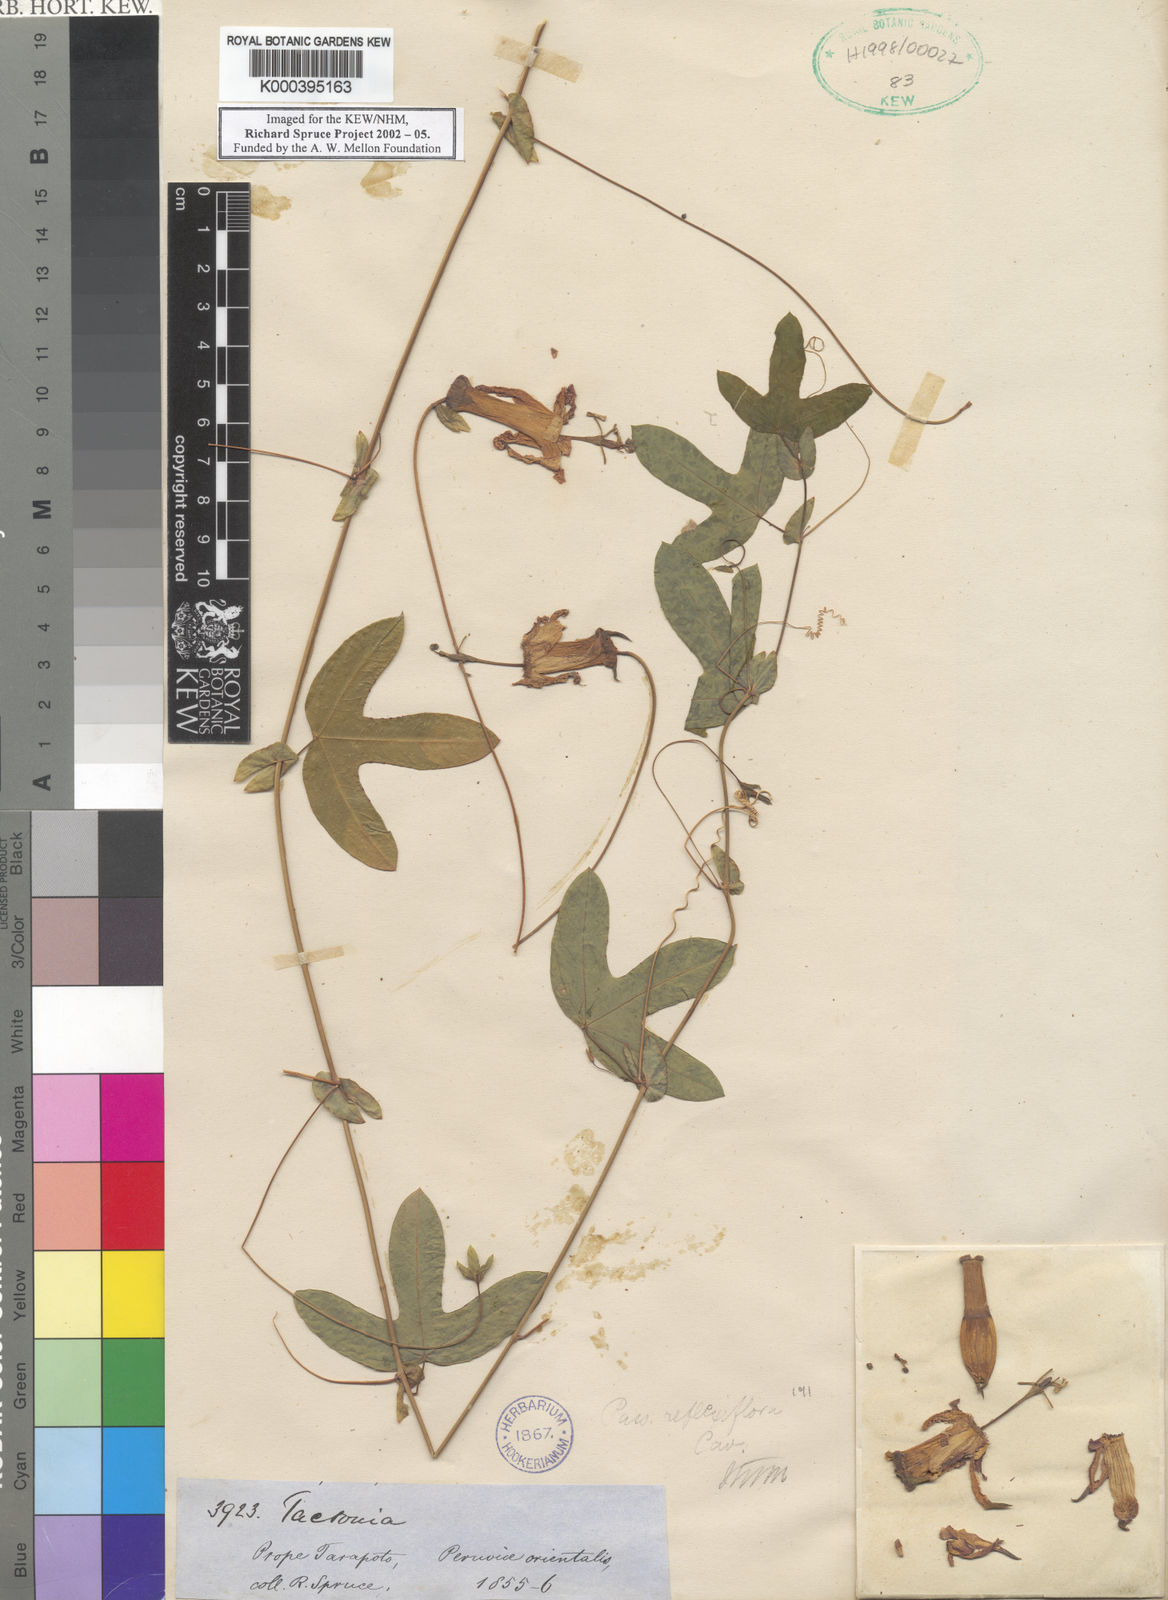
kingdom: Plantae
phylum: Tracheophyta
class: Magnoliopsida
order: Malpighiales
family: Passifloraceae
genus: Passiflora
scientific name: Passiflora reflexiflora
